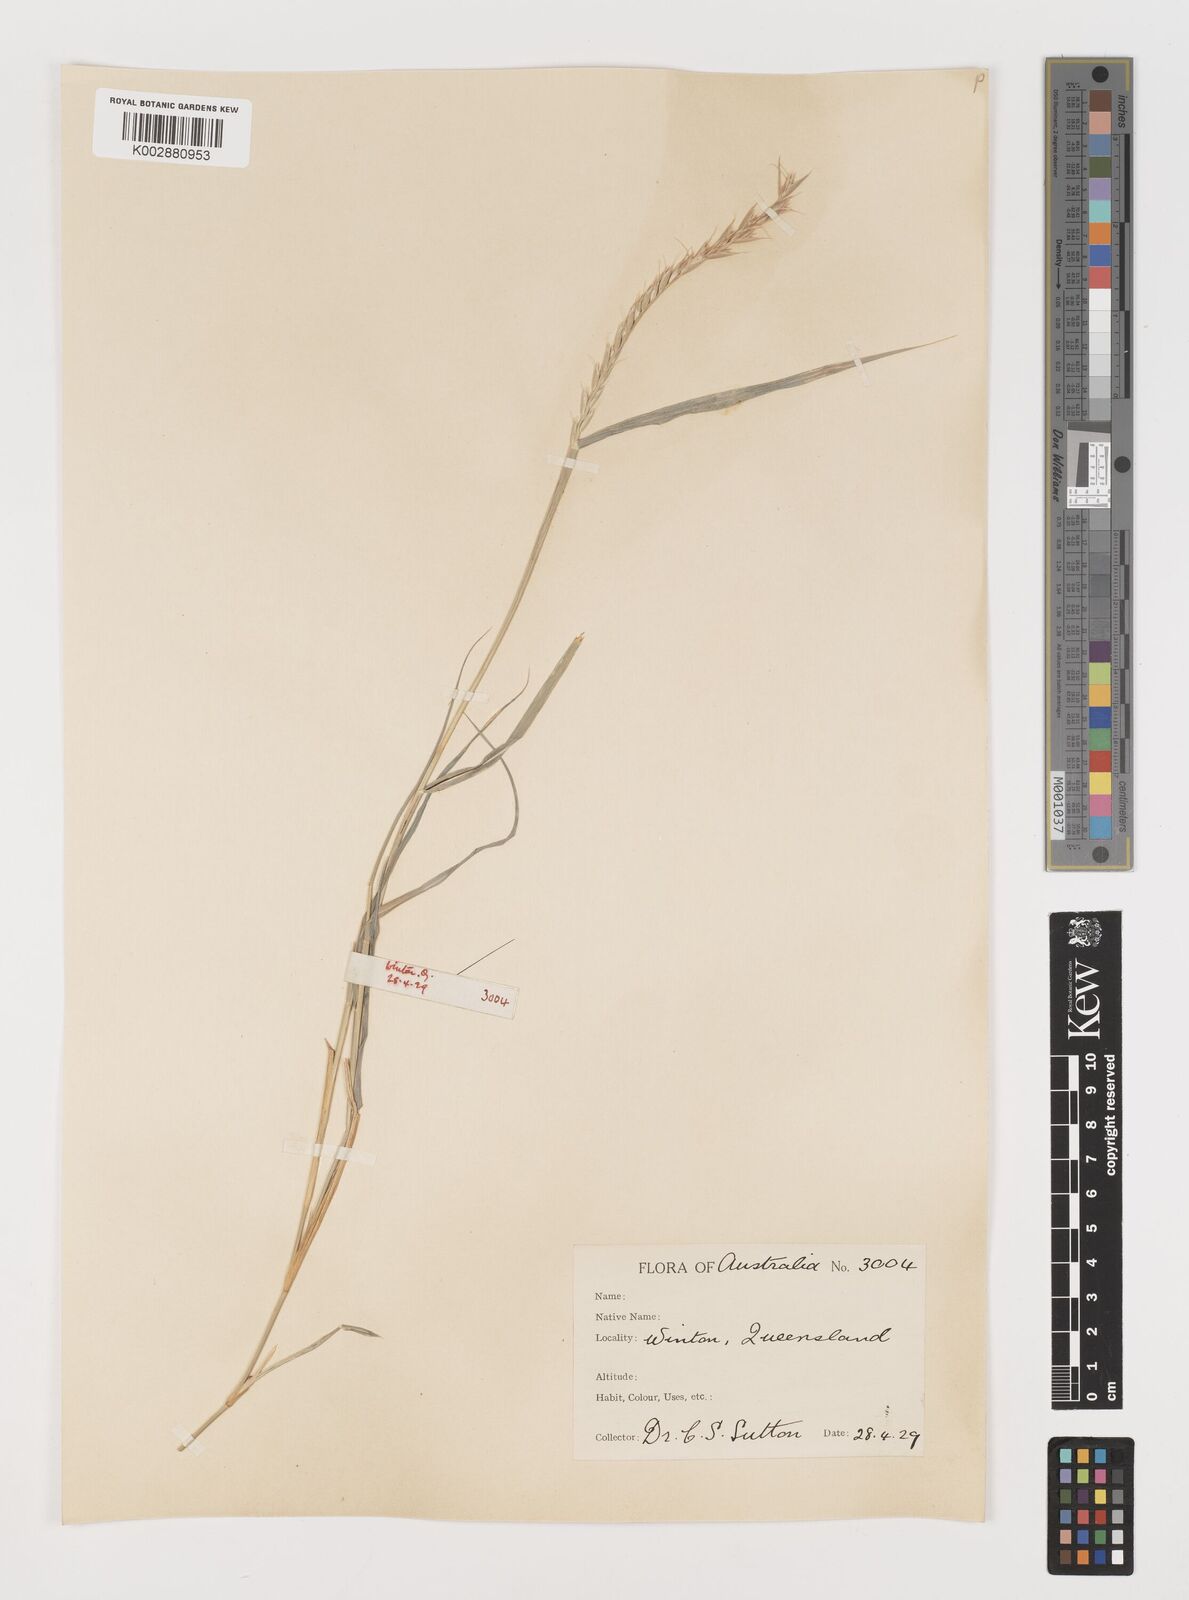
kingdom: Plantae
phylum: Tracheophyta
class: Liliopsida
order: Poales
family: Poaceae
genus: Astrebla
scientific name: Astrebla lappacea
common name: Curly mitchell grass
